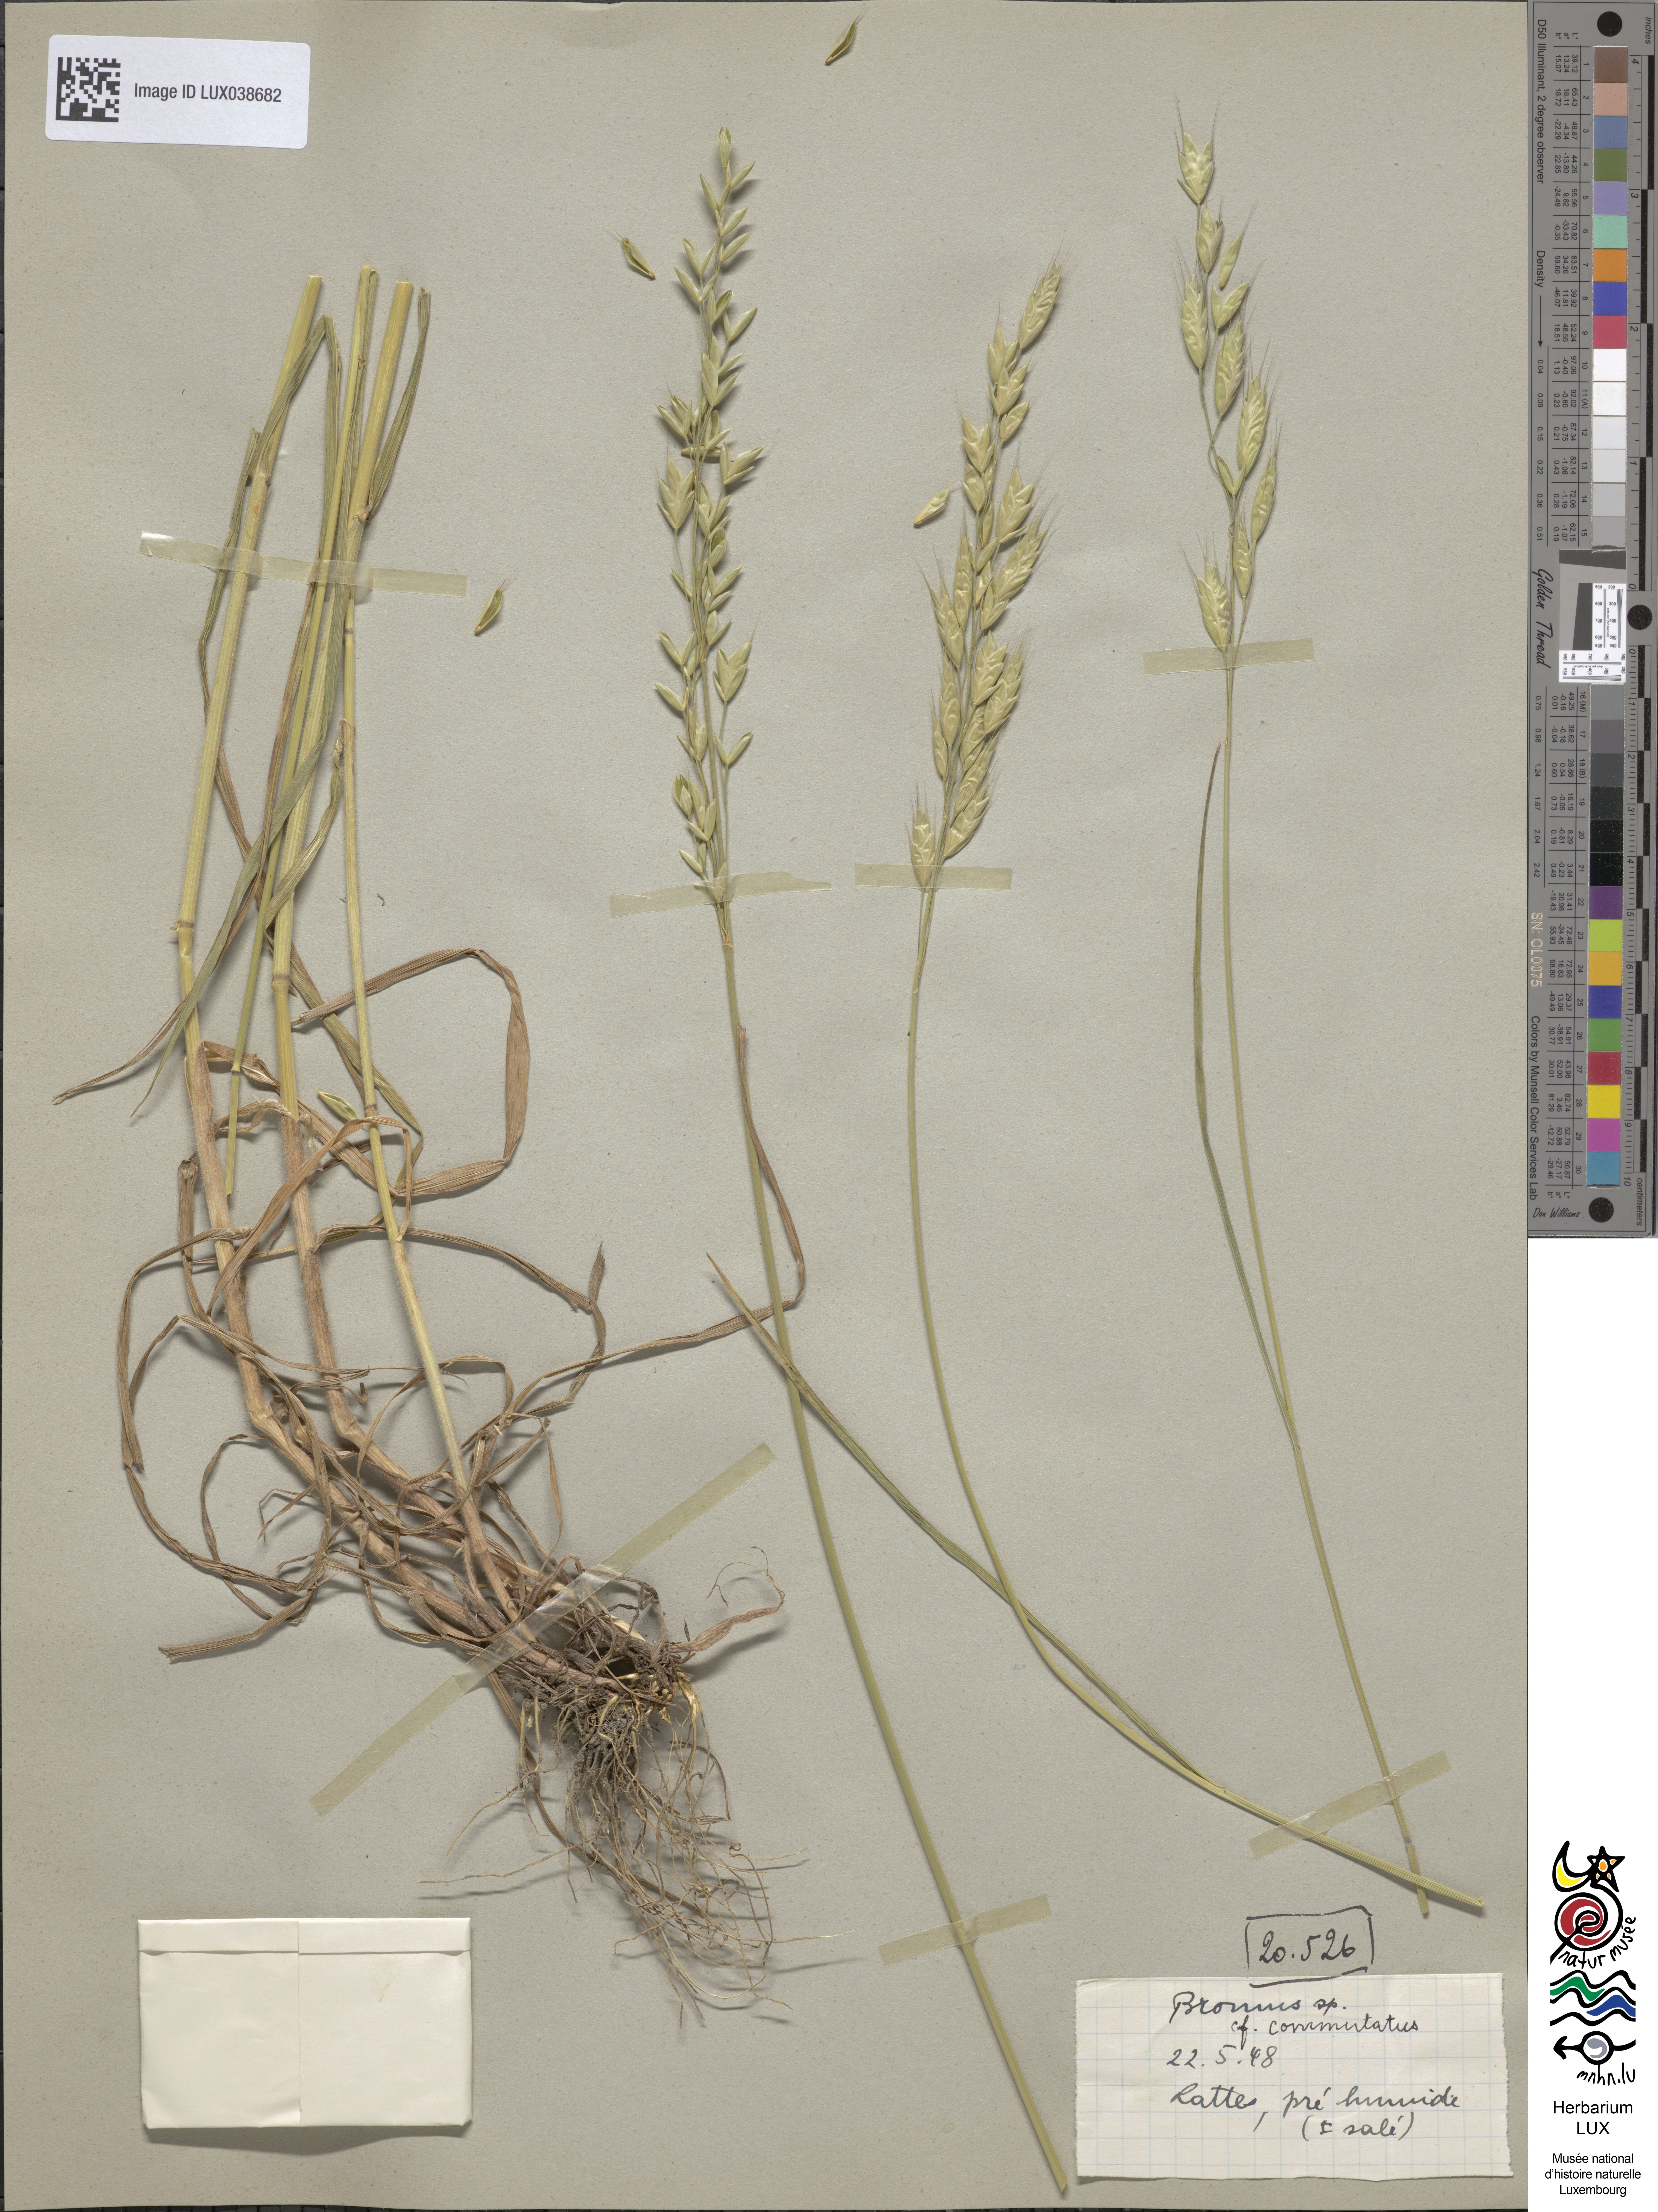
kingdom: Plantae
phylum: Tracheophyta
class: Liliopsida
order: Poales
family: Poaceae
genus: Bromus
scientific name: Bromus commutatus
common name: Meadow brome
